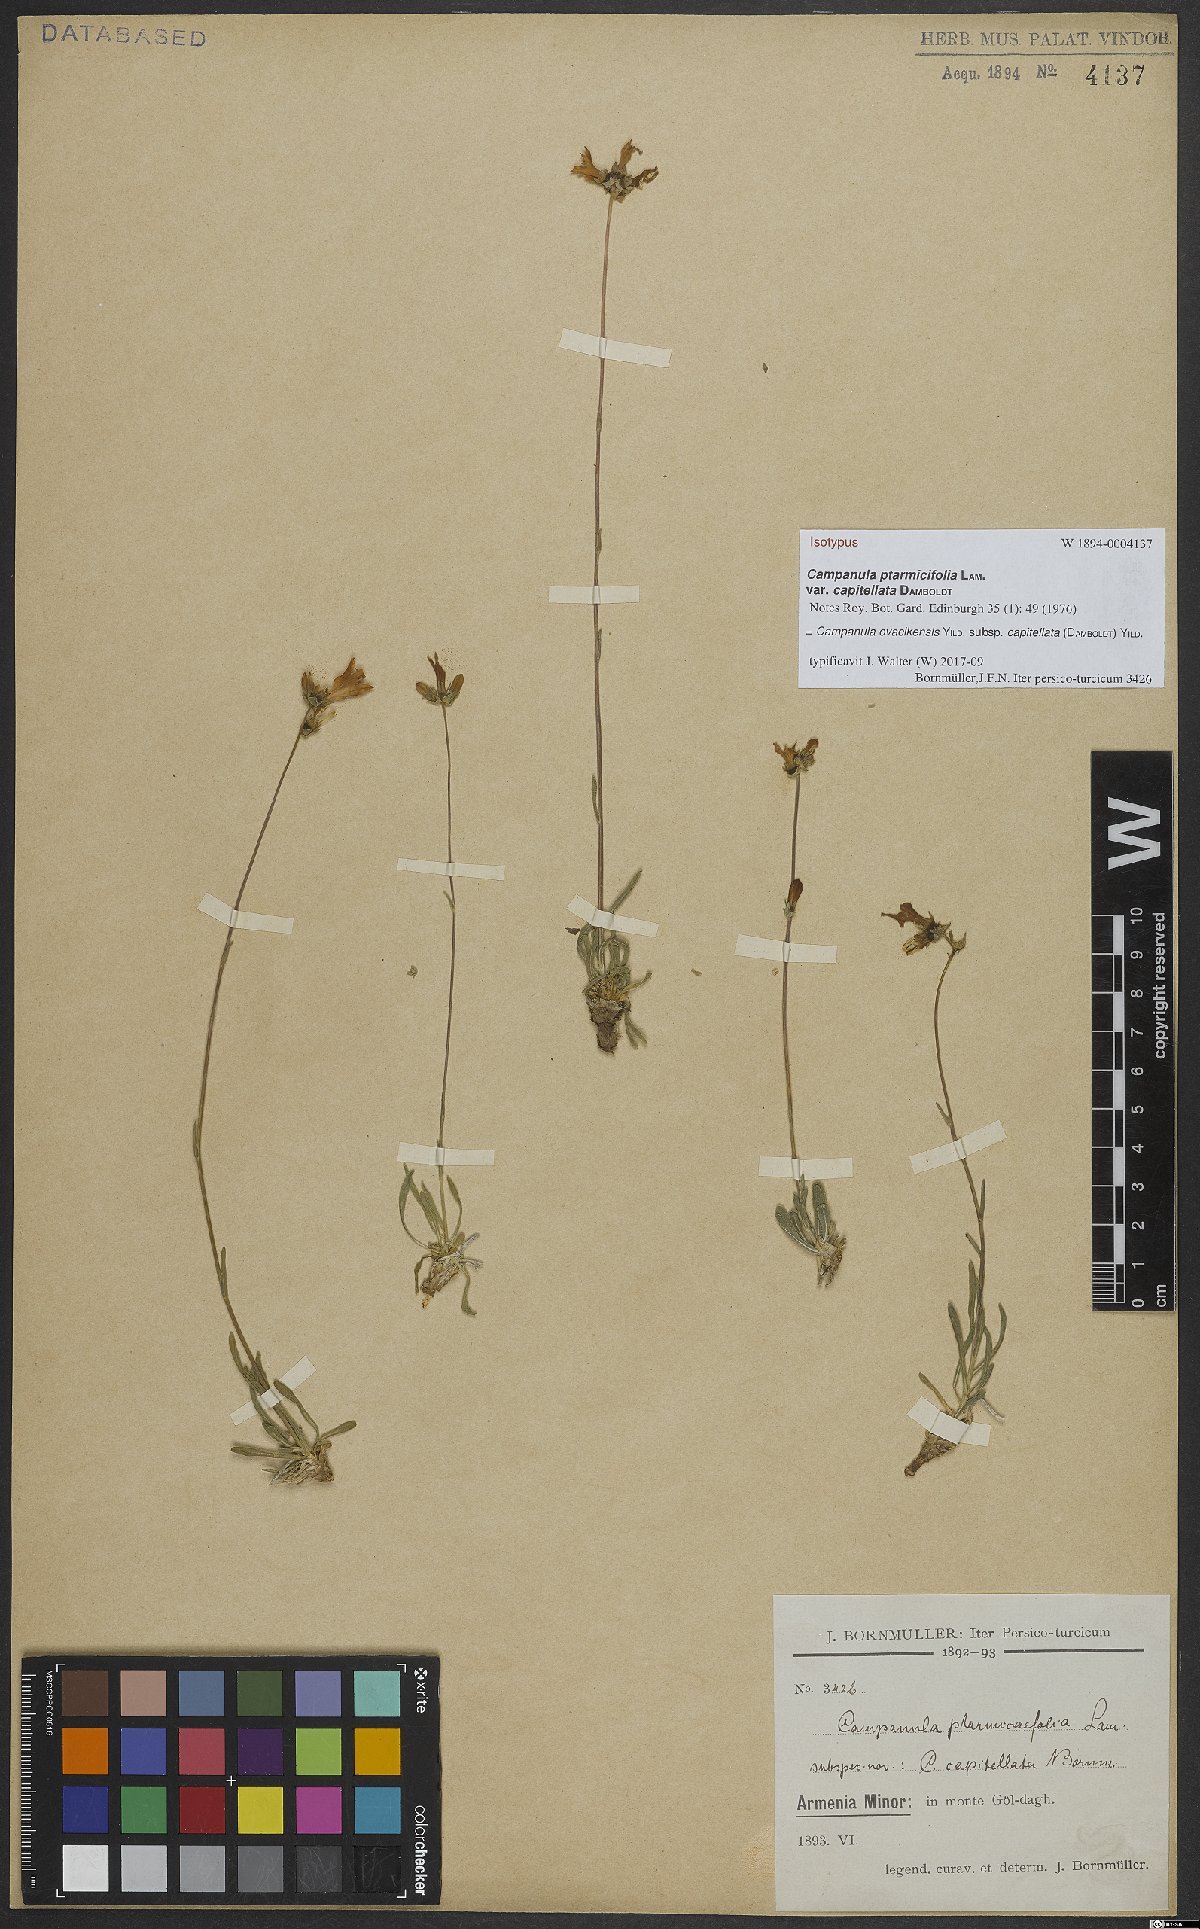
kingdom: Plantae
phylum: Tracheophyta
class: Magnoliopsida
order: Asterales
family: Campanulaceae
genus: Campanula
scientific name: Campanula ovacikensis
